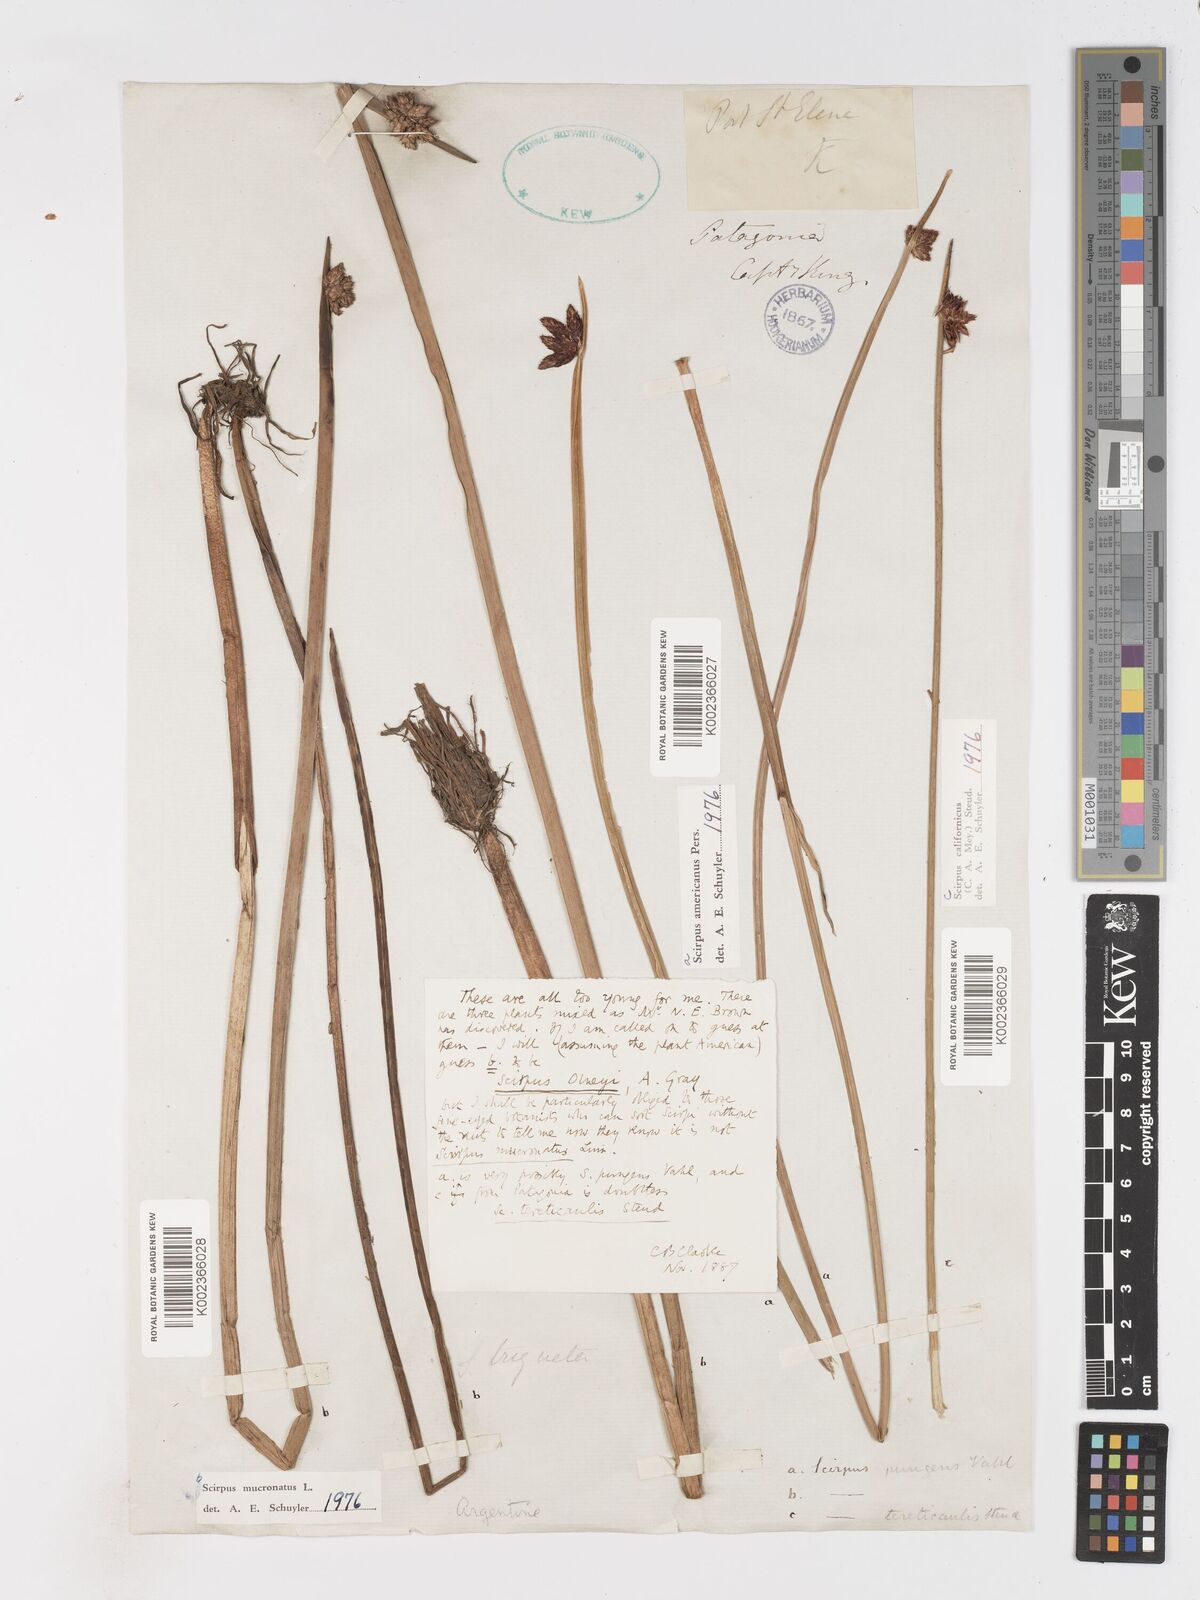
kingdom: Plantae
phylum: Tracheophyta
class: Liliopsida
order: Poales
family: Cyperaceae
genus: Schoenoplectus
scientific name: Schoenoplectus americanus
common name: American three-square bulrush
